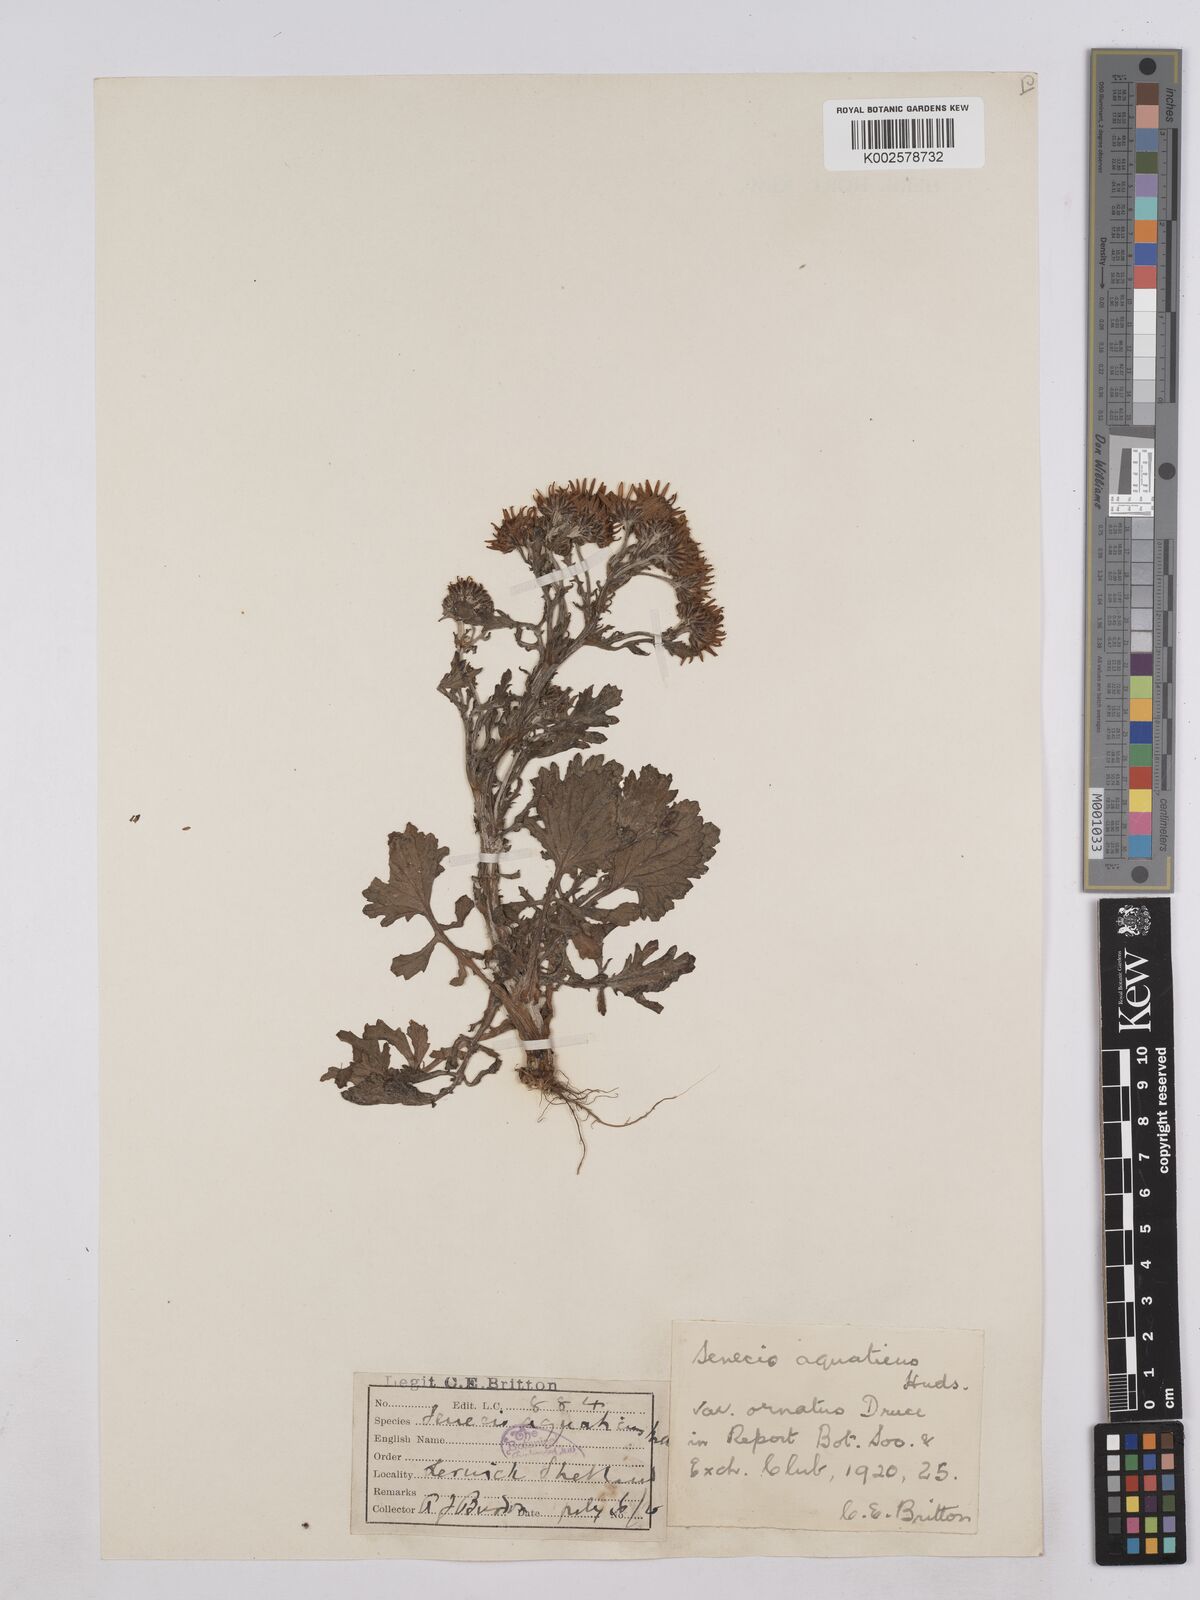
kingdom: Plantae
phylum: Tracheophyta
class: Magnoliopsida
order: Asterales
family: Asteraceae
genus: Jacobaea
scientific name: Jacobaea aquatica
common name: Water ragwort
